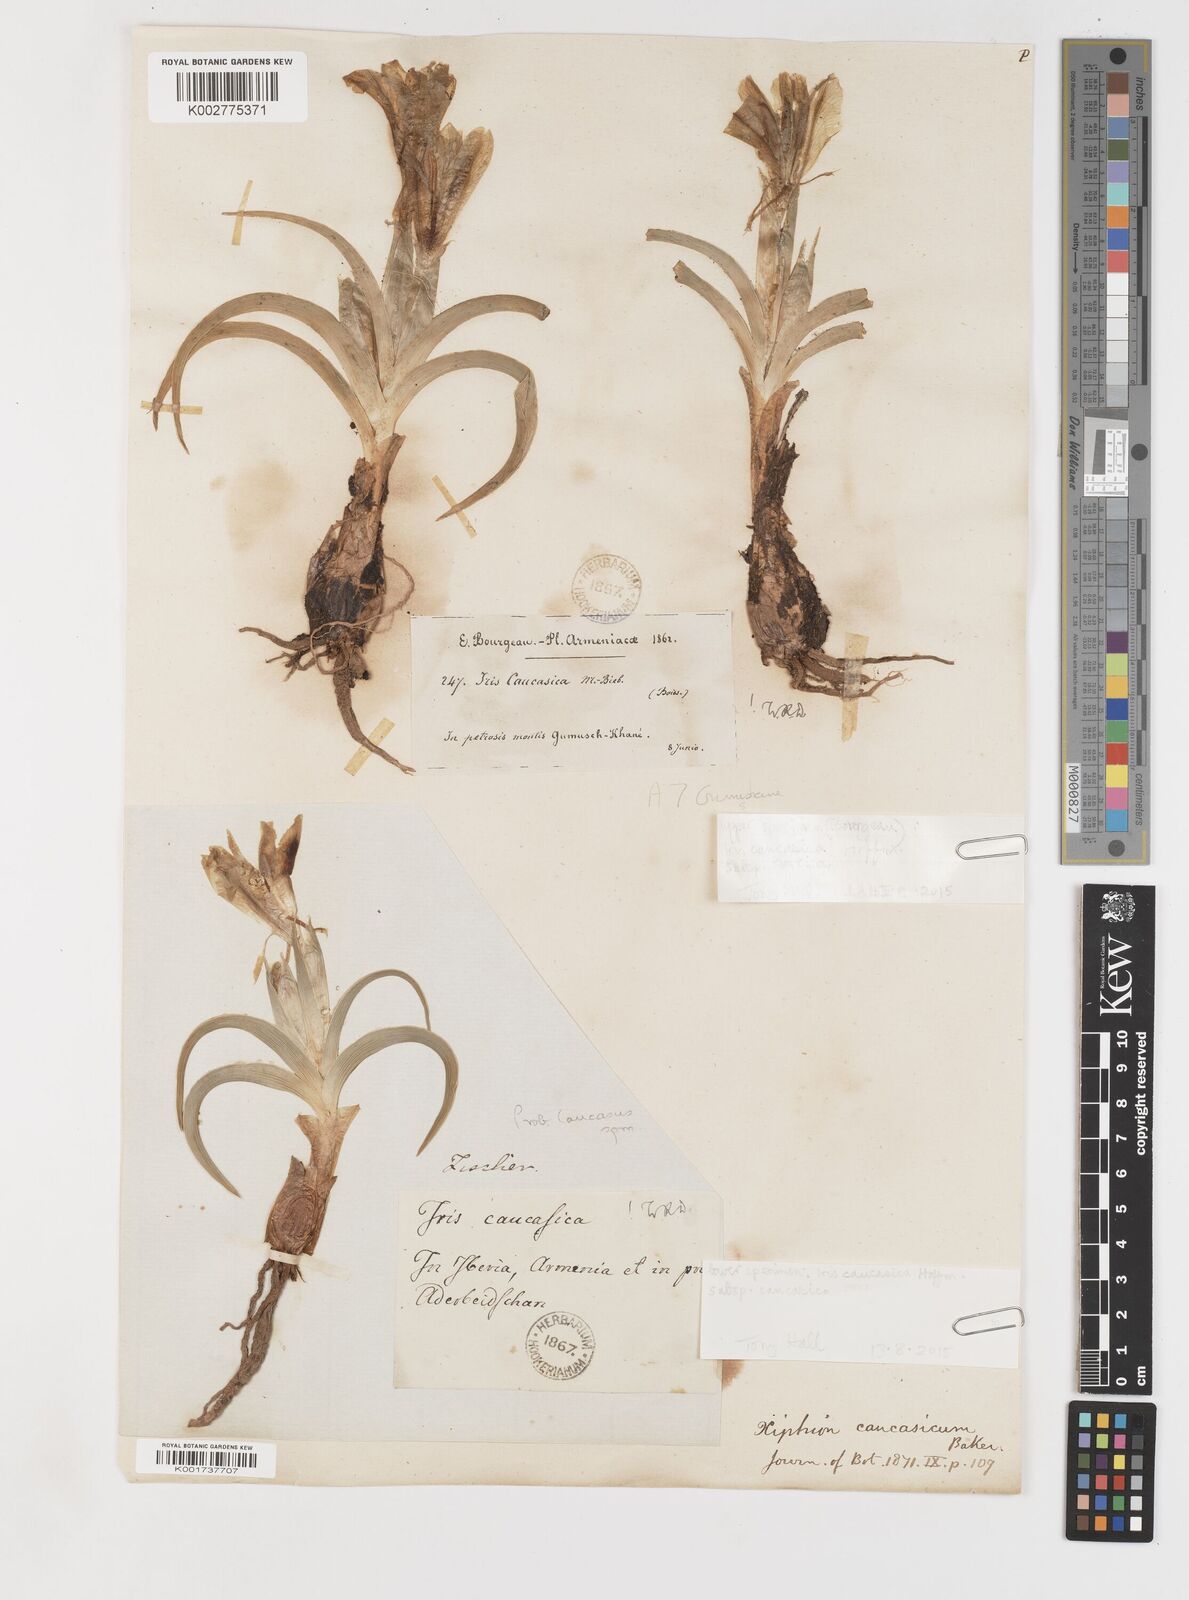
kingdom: Plantae
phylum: Tracheophyta
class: Liliopsida
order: Asparagales
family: Iridaceae
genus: Iris
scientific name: Iris caucasica
